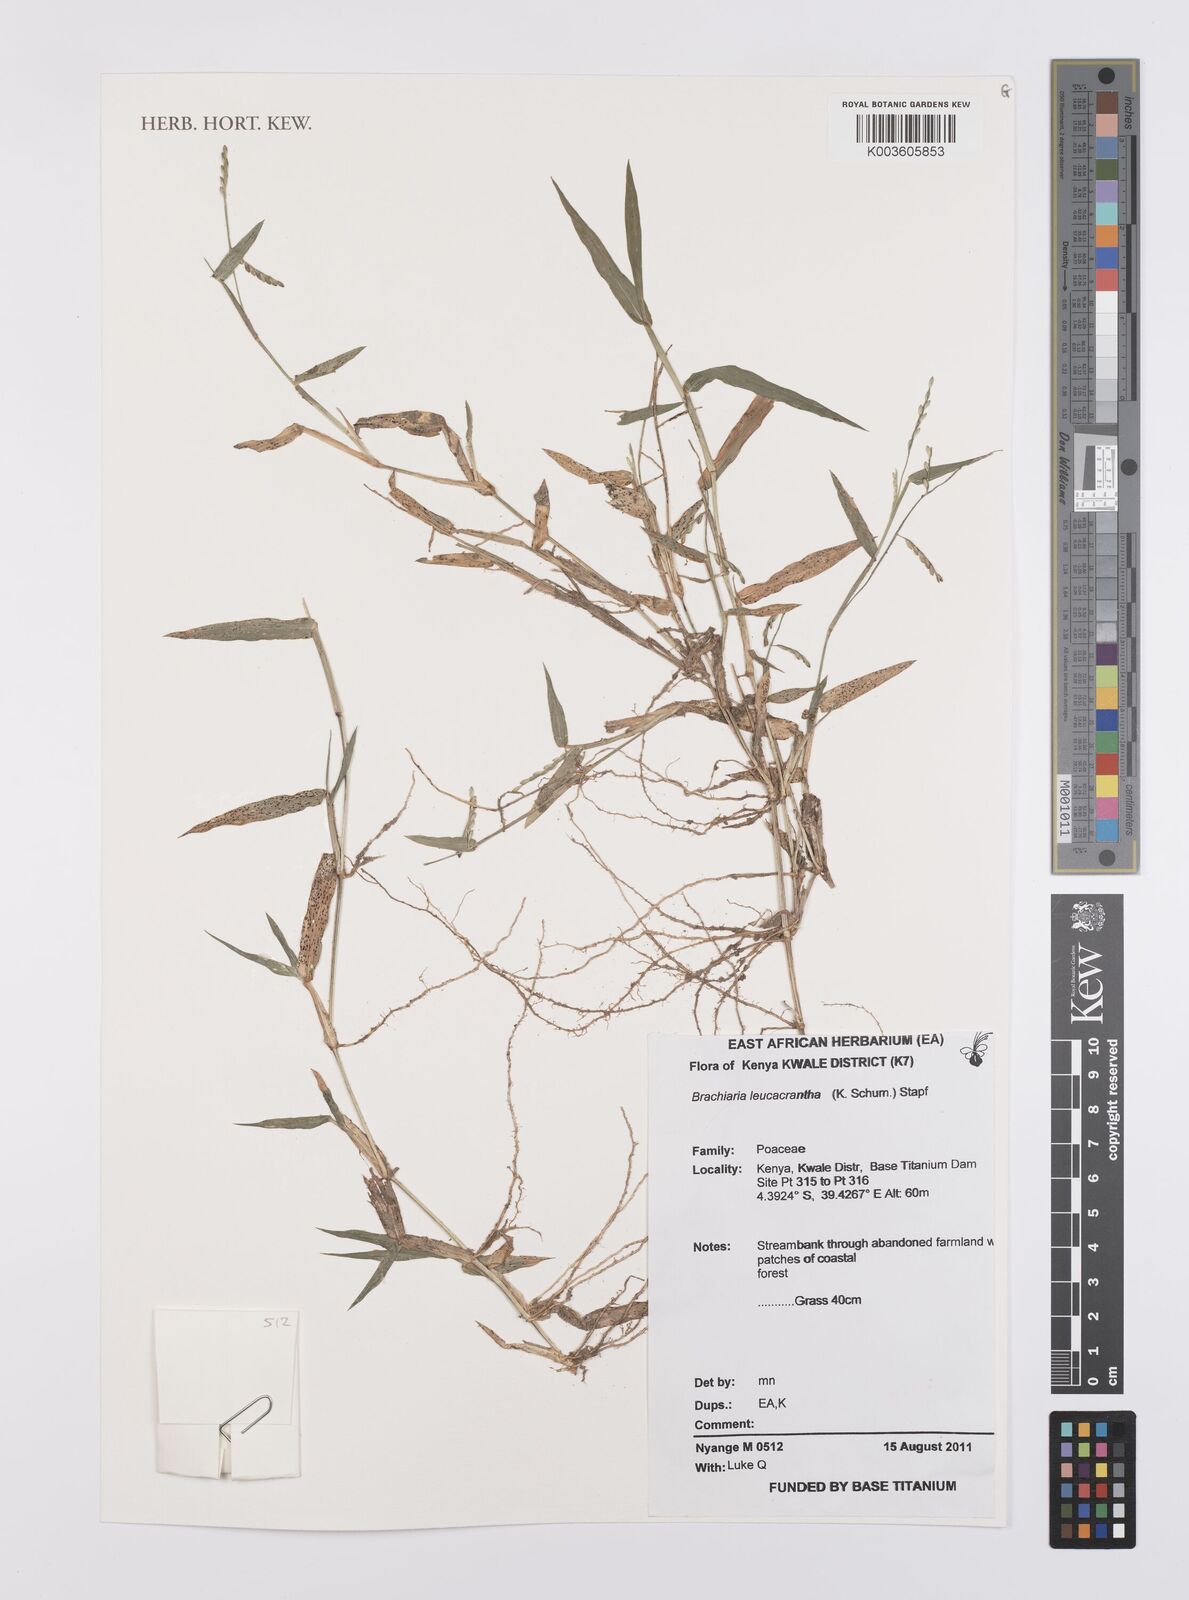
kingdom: Plantae
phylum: Tracheophyta
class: Liliopsida
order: Poales
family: Poaceae
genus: Urochloa
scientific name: Urochloa xantholeuca
